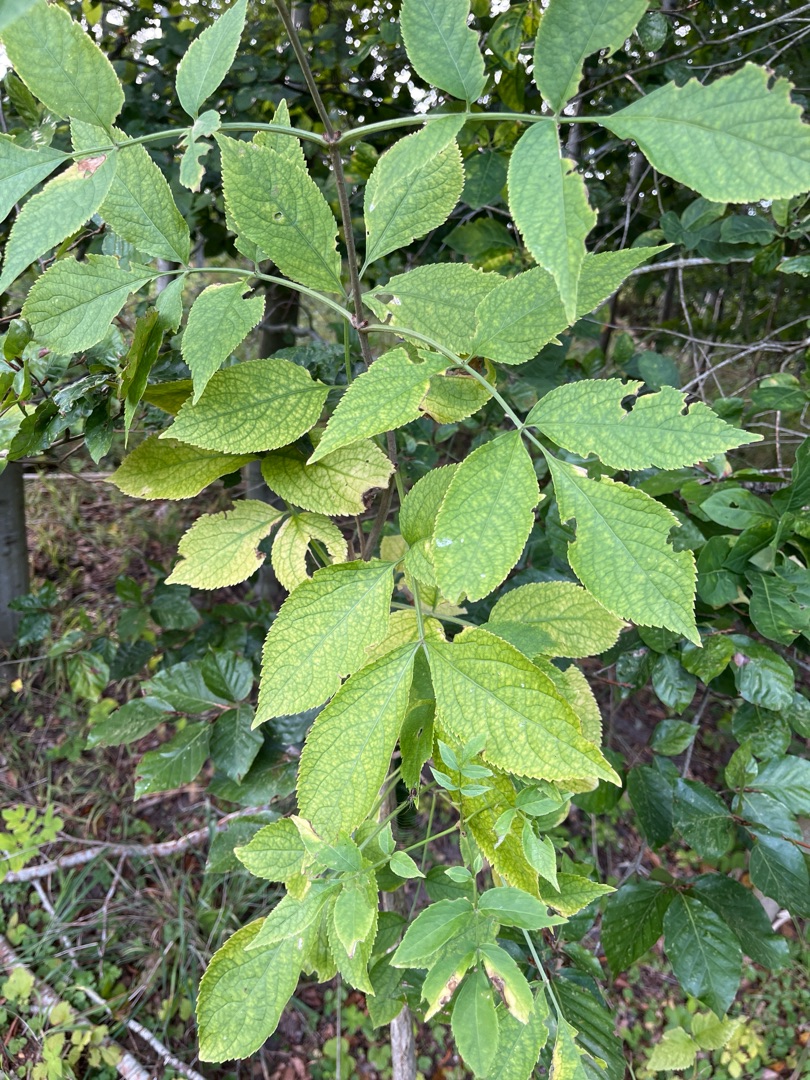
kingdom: Plantae
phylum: Tracheophyta
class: Magnoliopsida
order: Dipsacales
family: Viburnaceae
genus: Sambucus
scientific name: Sambucus nigra
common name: Almindelig hyld
